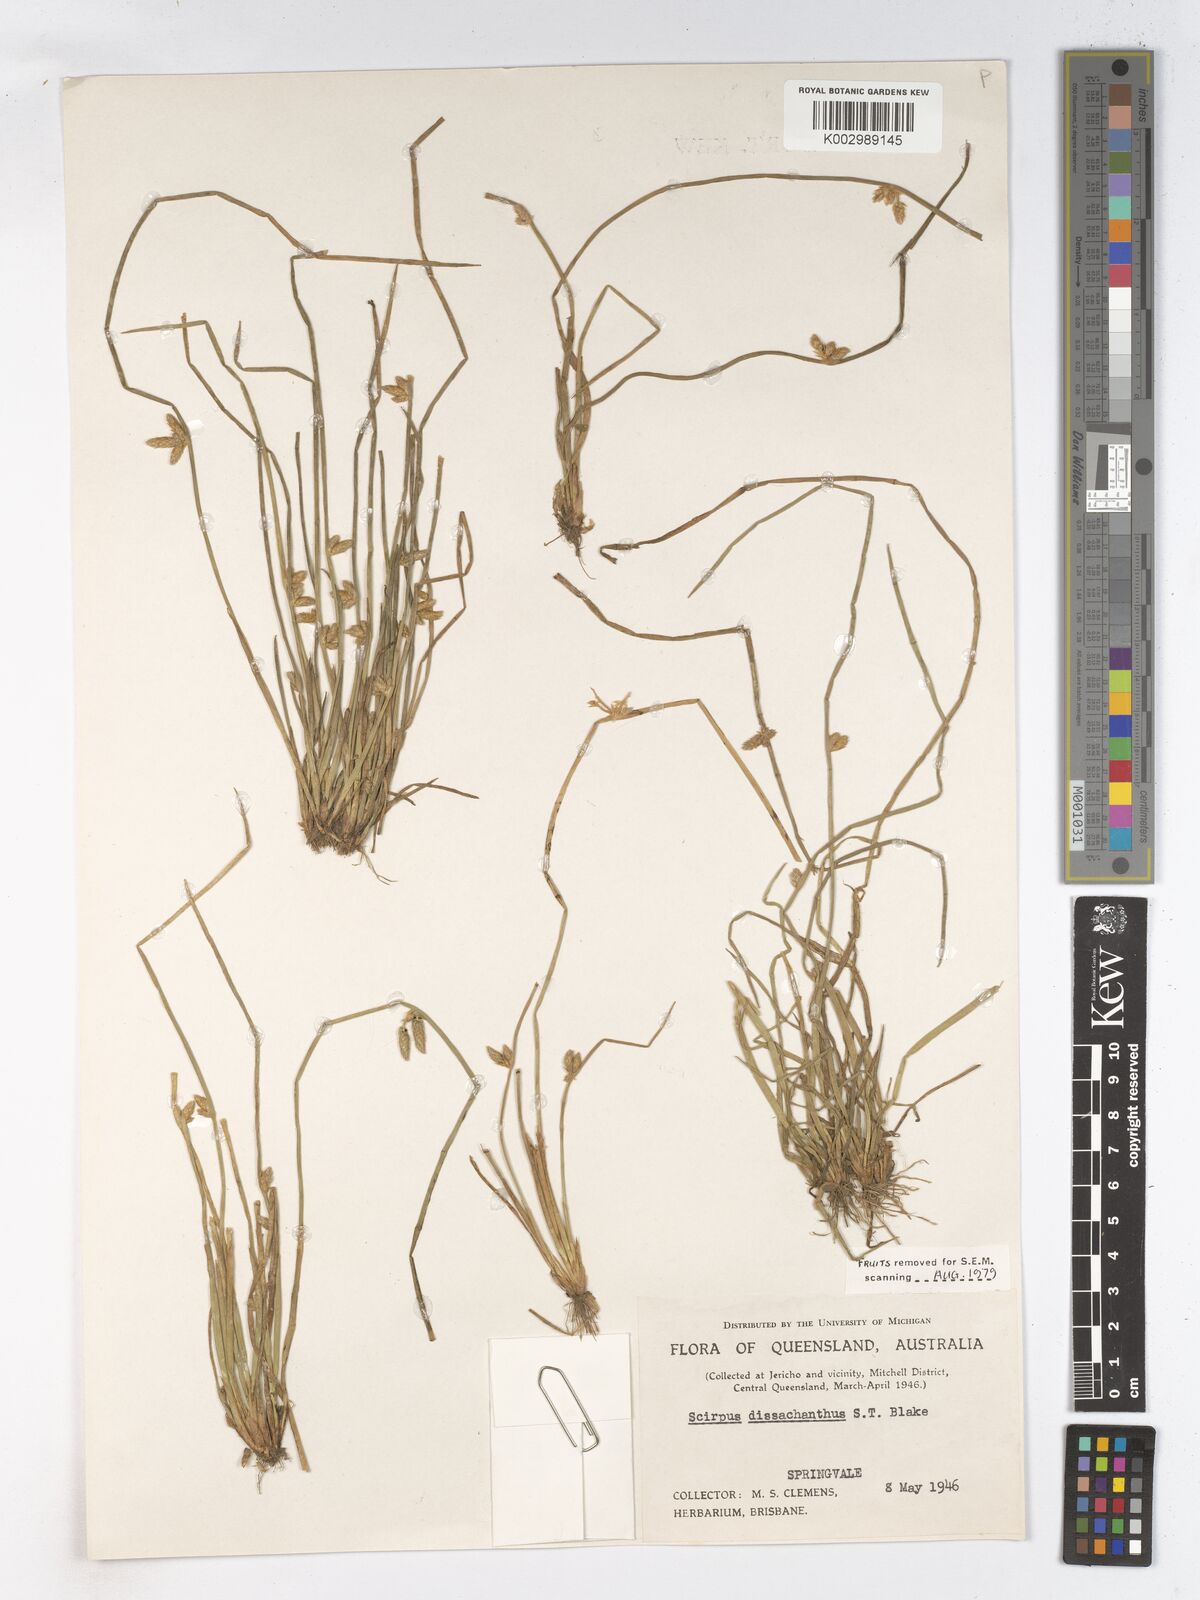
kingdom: Plantae
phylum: Tracheophyta
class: Liliopsida
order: Poales
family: Cyperaceae
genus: Schoenoplectiella
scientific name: Schoenoplectiella dissachantha
